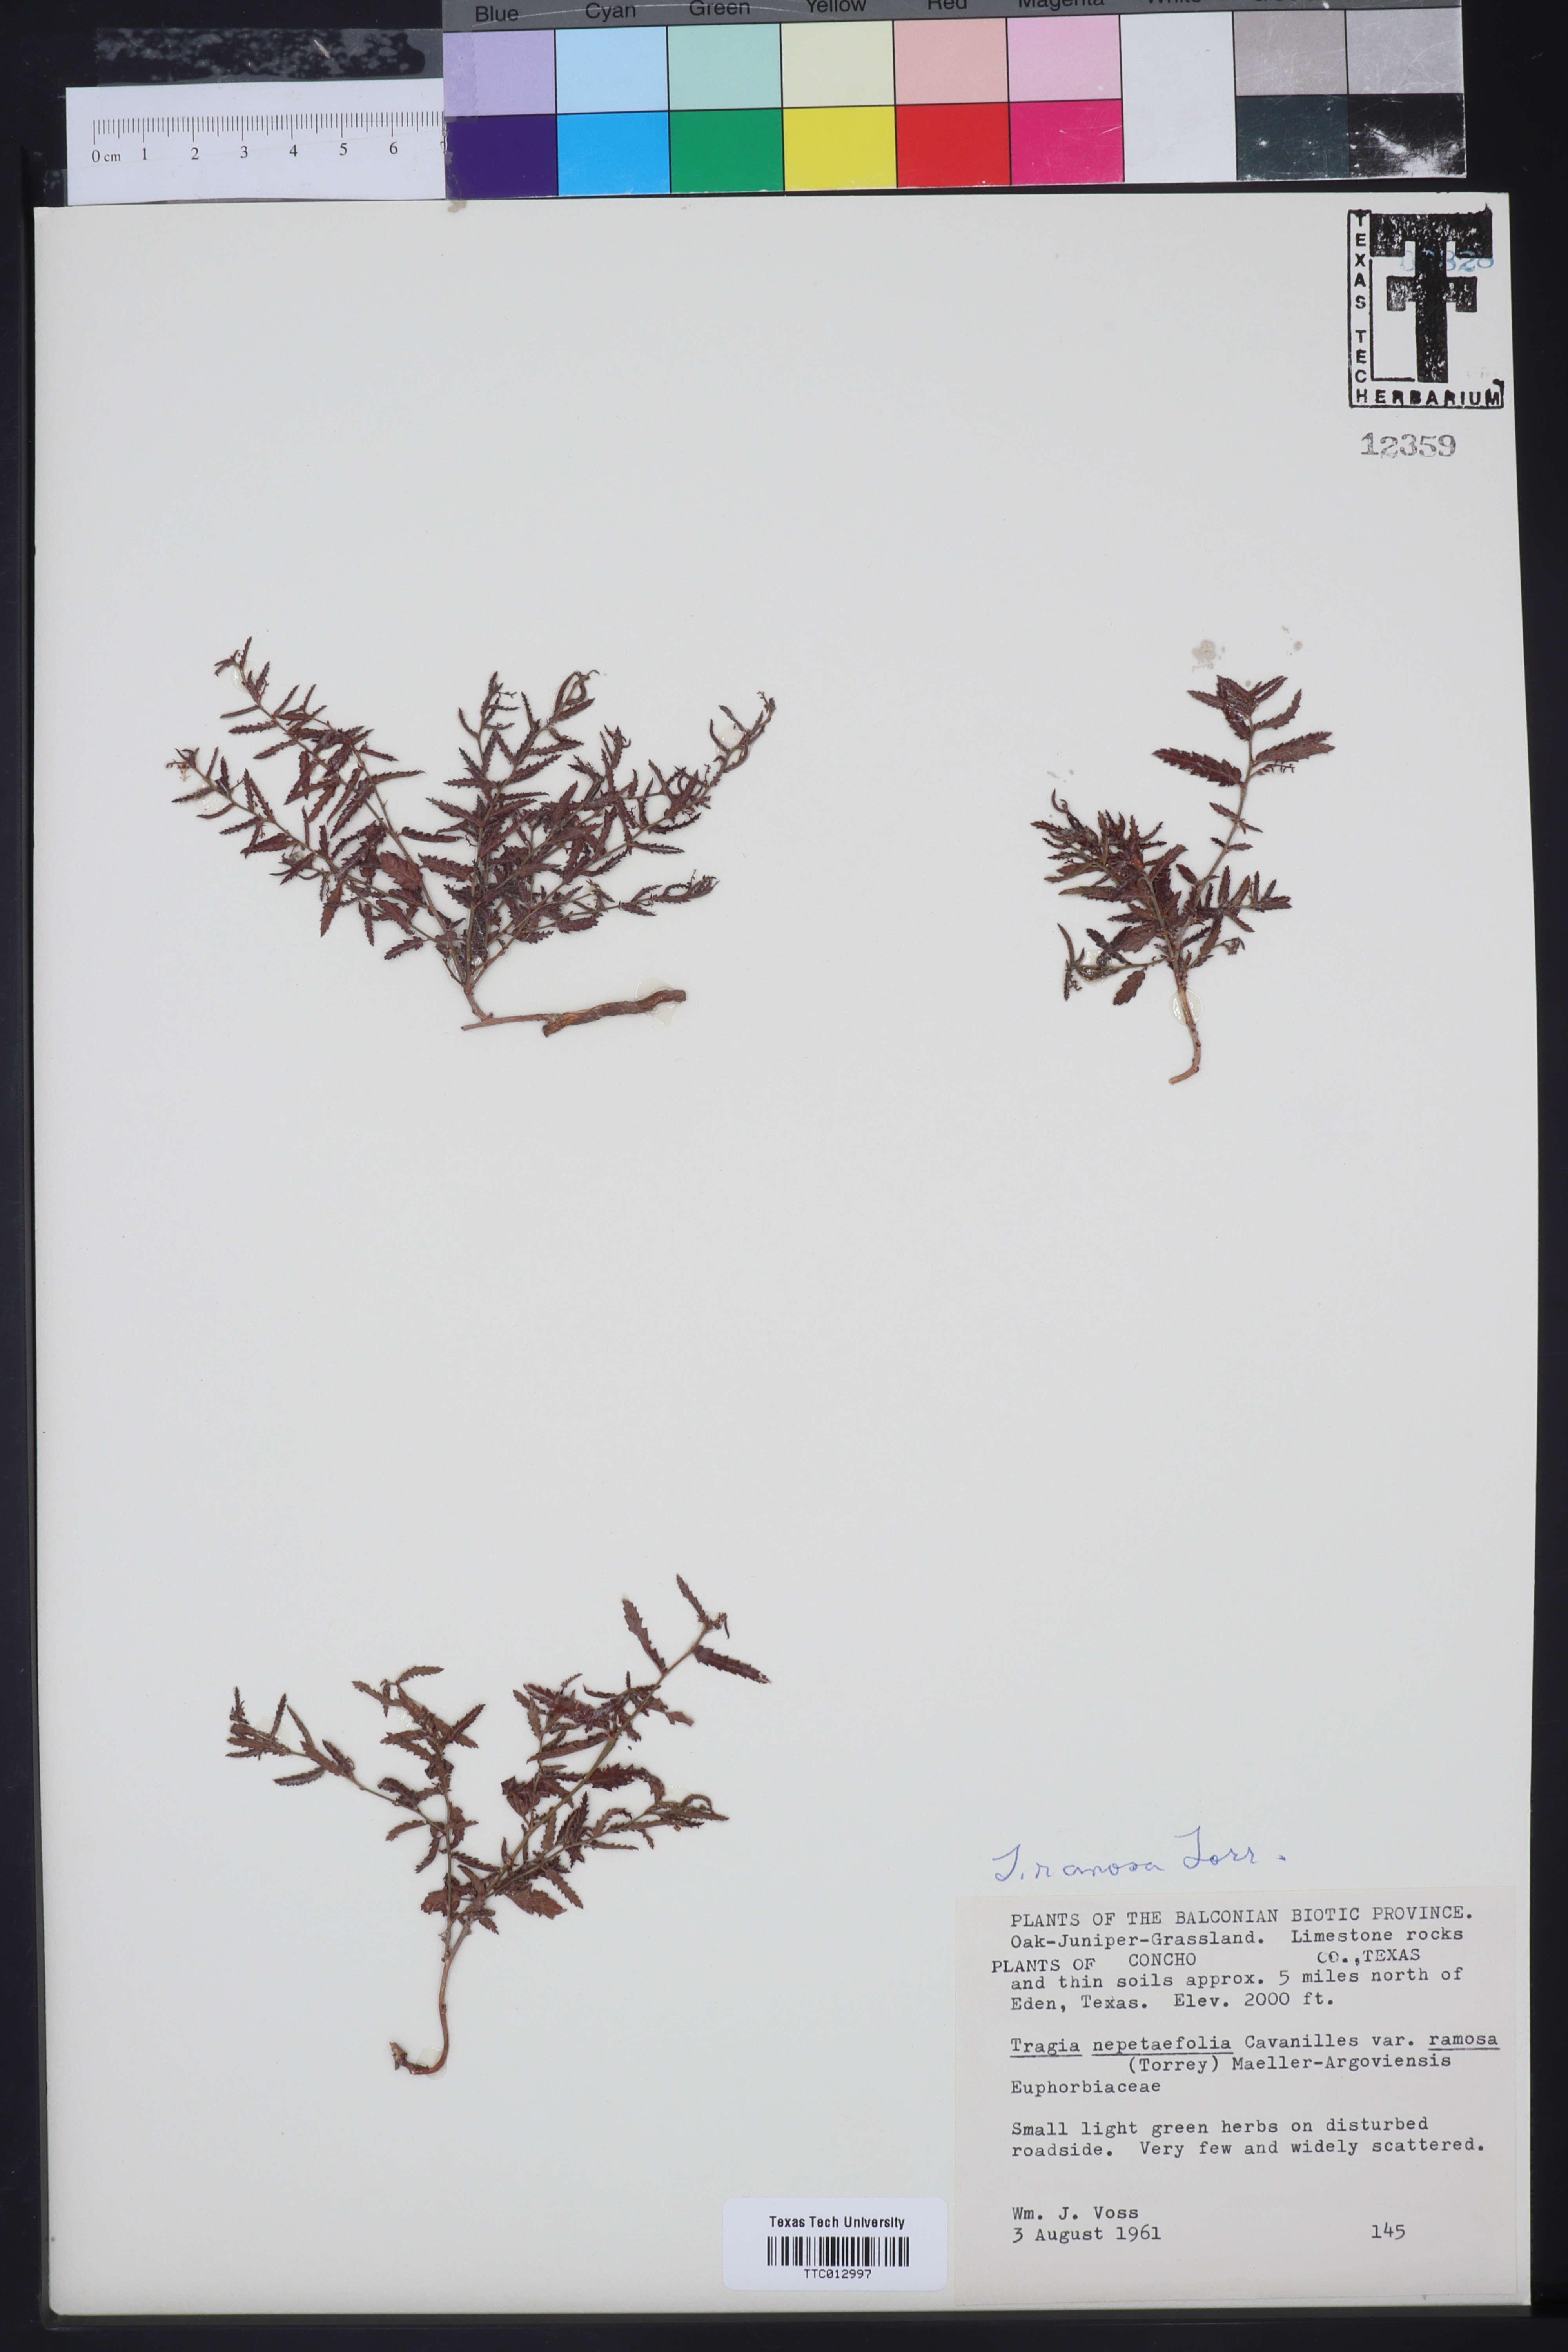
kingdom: Plantae
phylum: Tracheophyta
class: Magnoliopsida
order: Malpighiales
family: Euphorbiaceae
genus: Tragia
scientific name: Tragia ramosa
